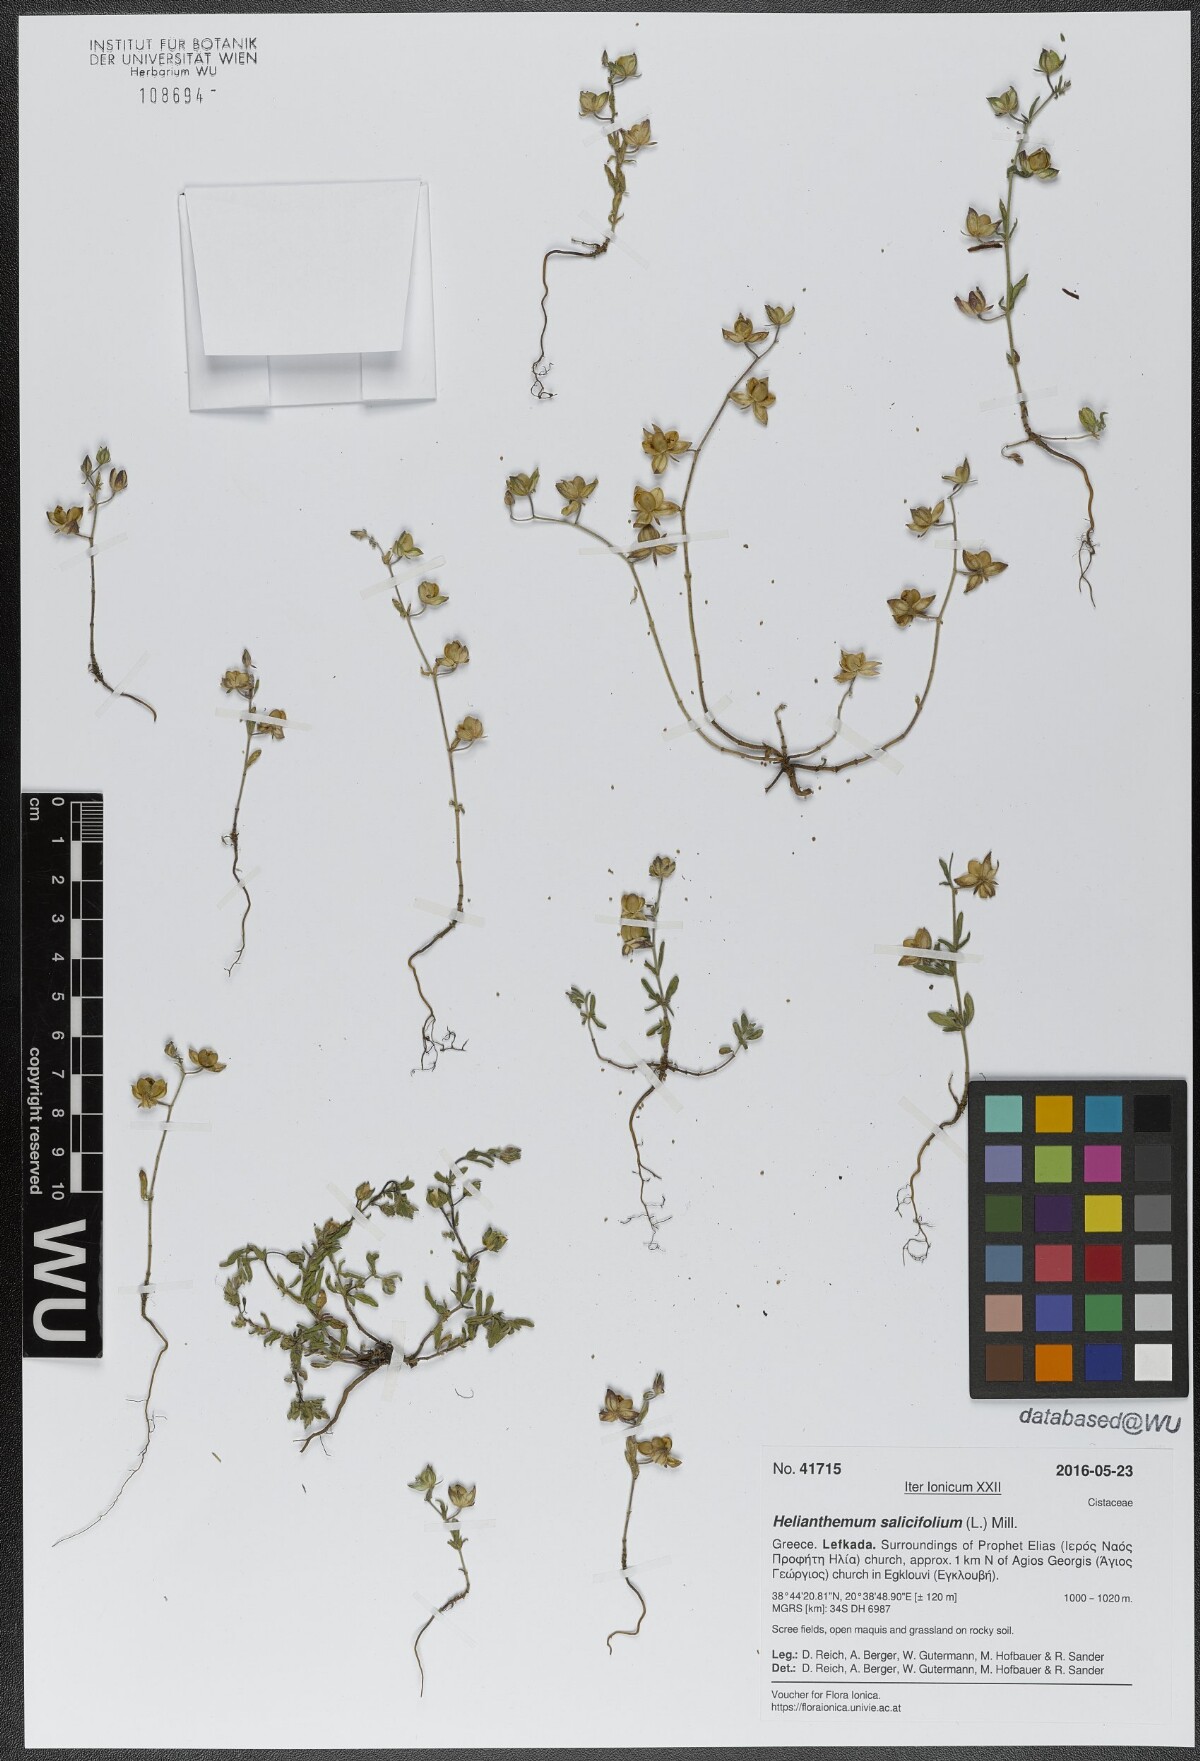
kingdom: Plantae
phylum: Tracheophyta
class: Magnoliopsida
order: Malvales
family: Cistaceae
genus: Helianthemum
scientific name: Helianthemum salicifolium
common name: Willowleaf frostweed
